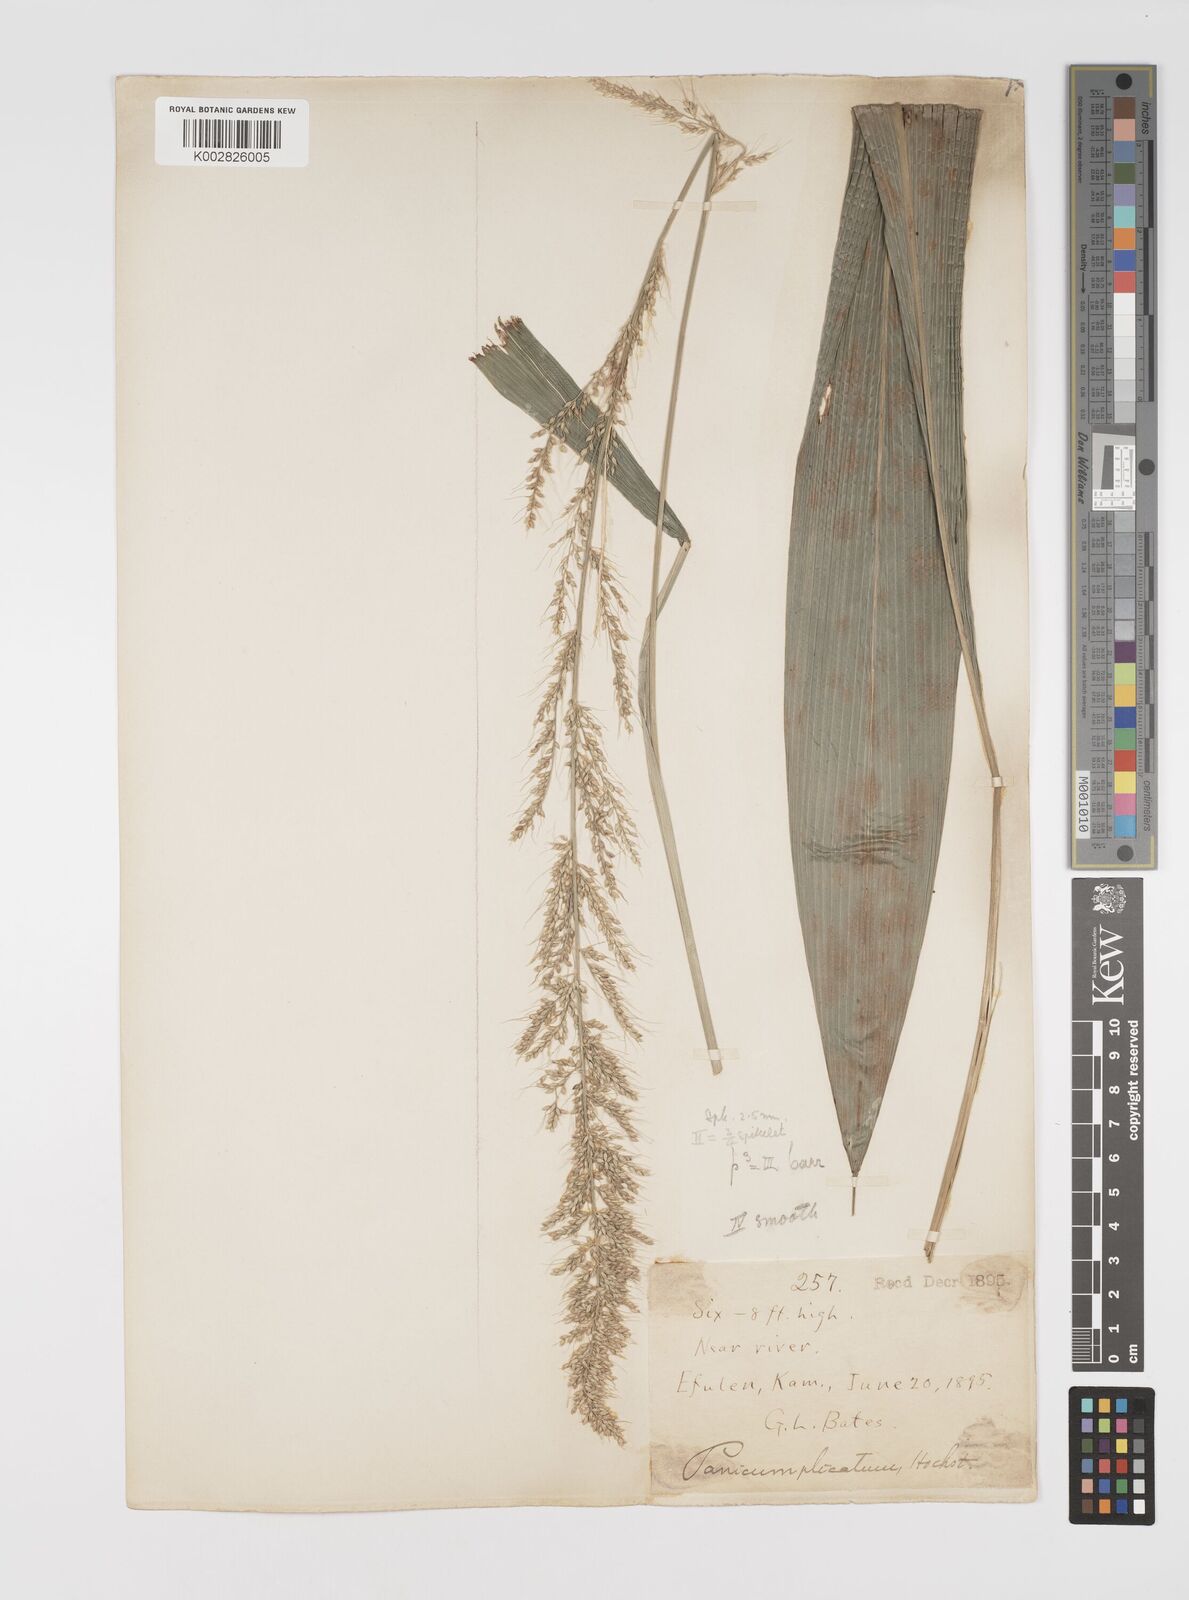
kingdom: Plantae
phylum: Tracheophyta
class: Liliopsida
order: Poales
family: Poaceae
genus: Setaria
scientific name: Setaria megaphylla
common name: Bigleaf bristlegrass
